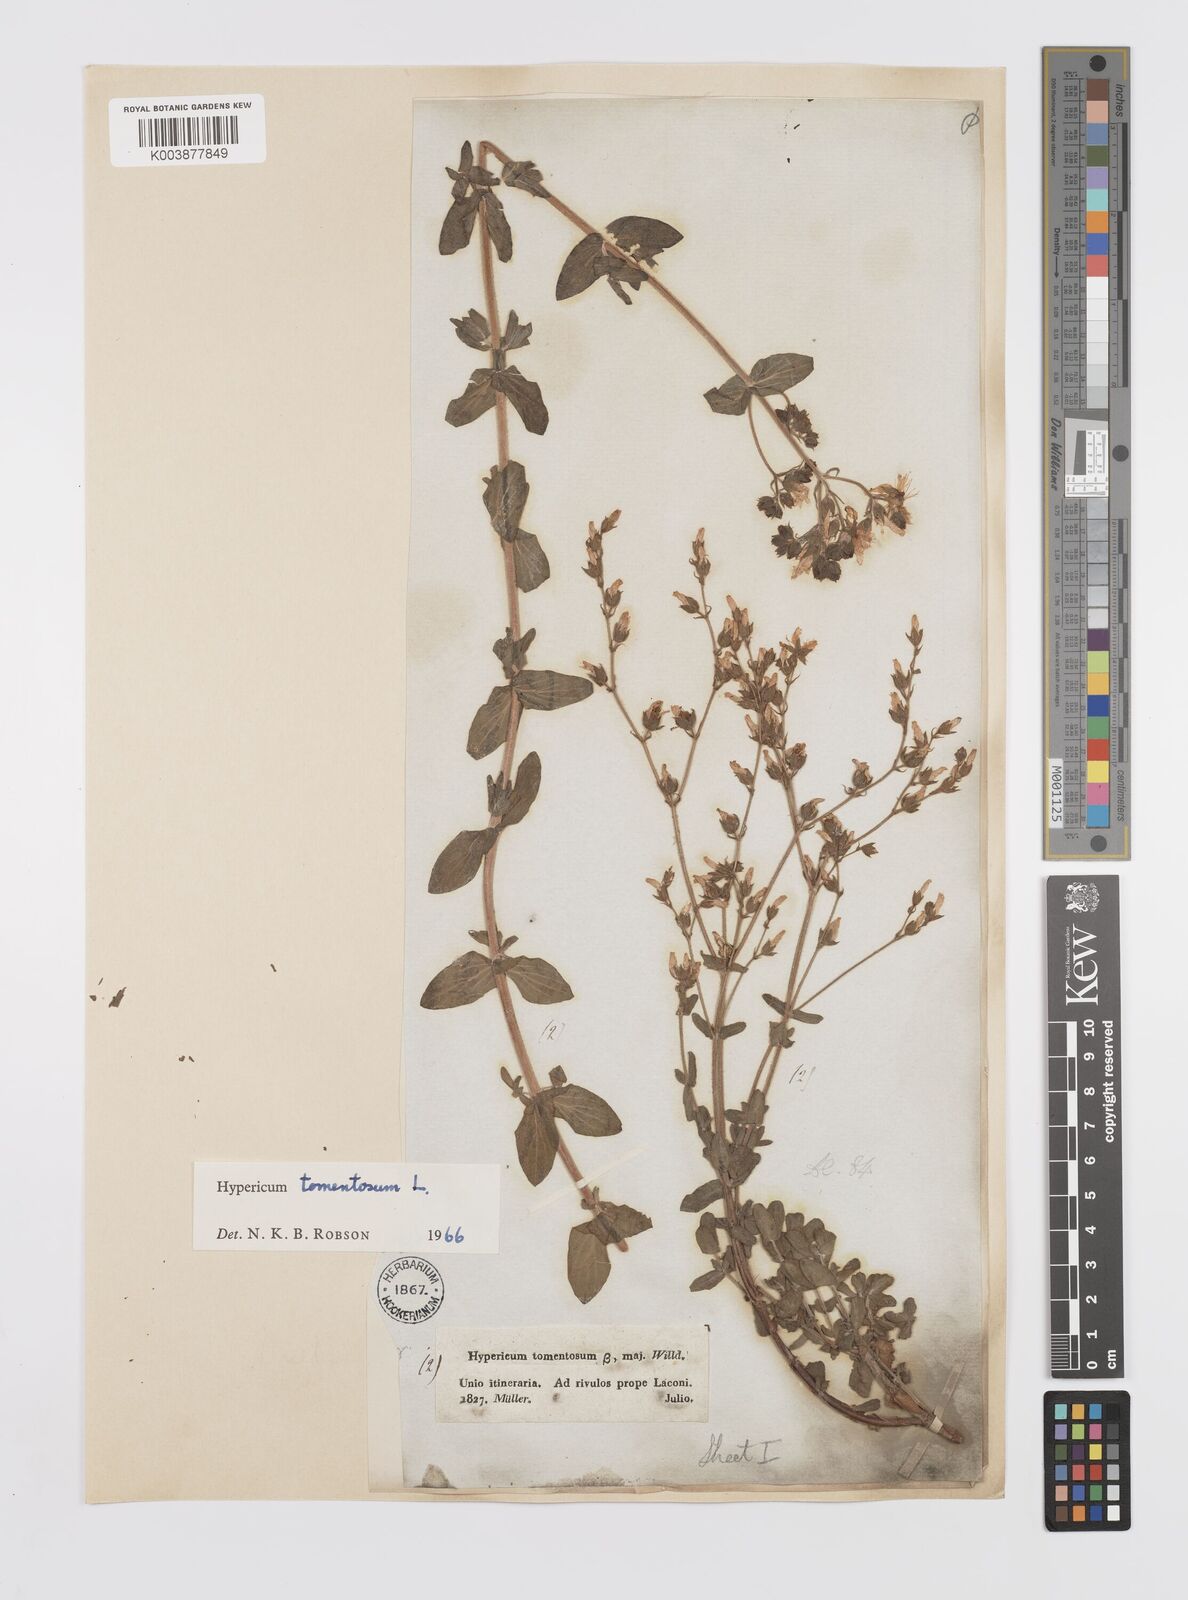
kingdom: Plantae
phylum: Tracheophyta
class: Magnoliopsida
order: Malpighiales
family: Hypericaceae
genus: Hypericum
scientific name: Hypericum tomentosum
